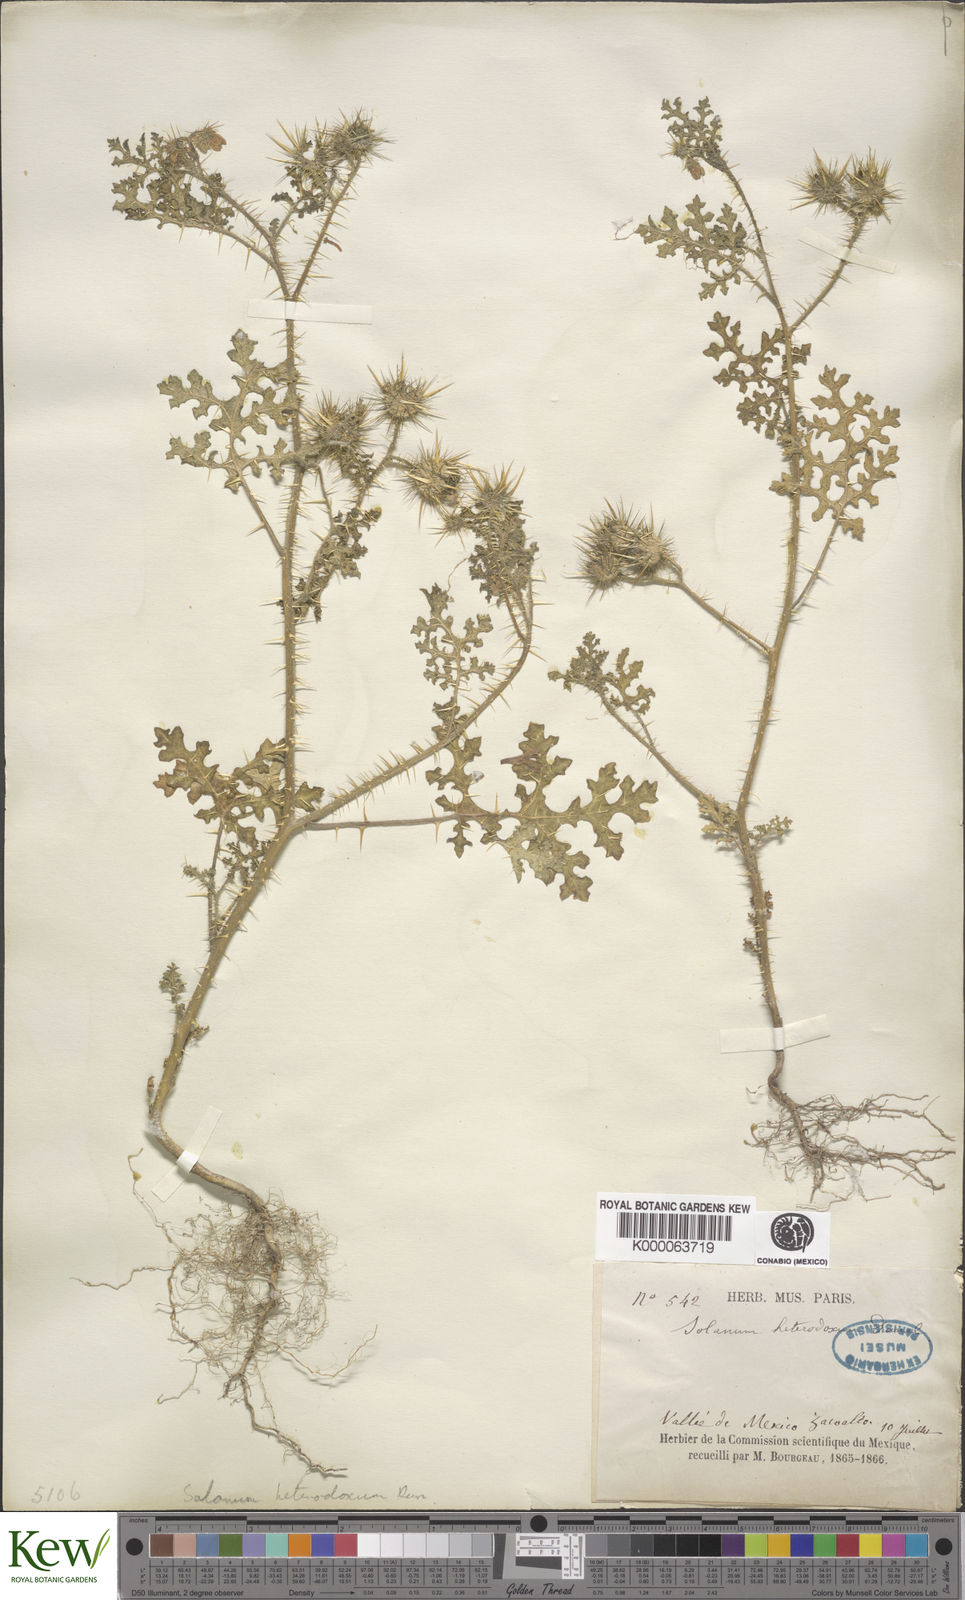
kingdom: Plantae
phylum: Tracheophyta
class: Magnoliopsida
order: Solanales
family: Solanaceae
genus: Solanum
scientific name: Solanum heterodoxum
